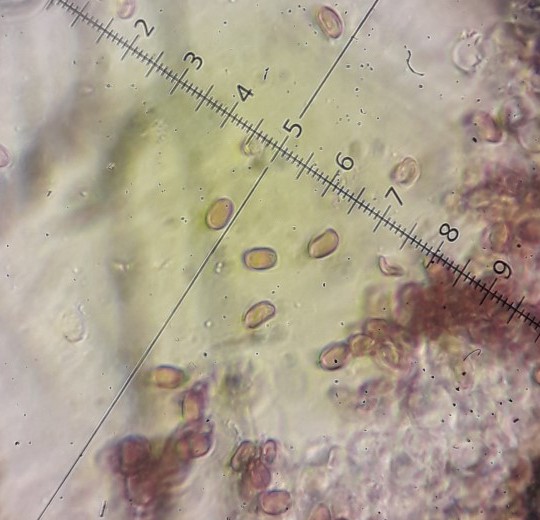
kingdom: Fungi
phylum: Basidiomycota
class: Agaricomycetes
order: Agaricales
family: Psathyrellaceae
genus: Psathyrella
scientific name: Psathyrella
